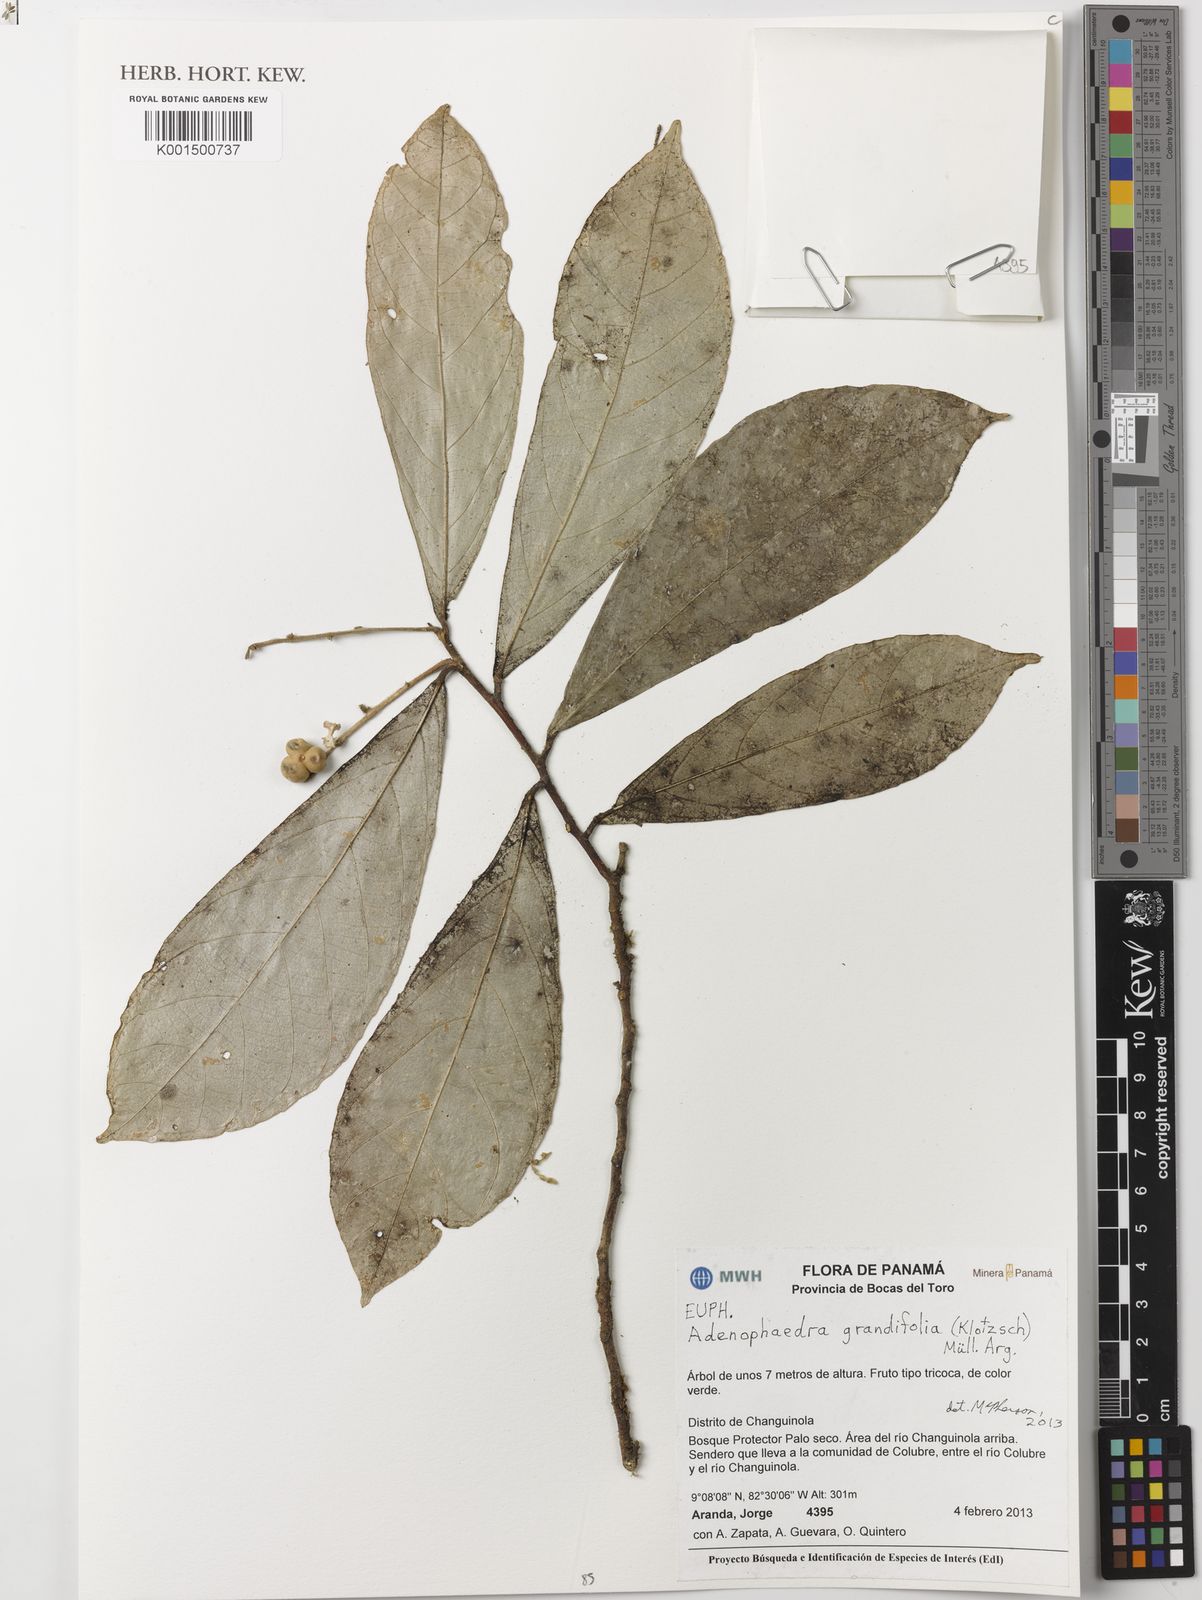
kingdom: Plantae
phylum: Tracheophyta
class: Magnoliopsida
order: Malpighiales
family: Euphorbiaceae
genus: Adenophaedra
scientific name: Adenophaedra grandifolia
